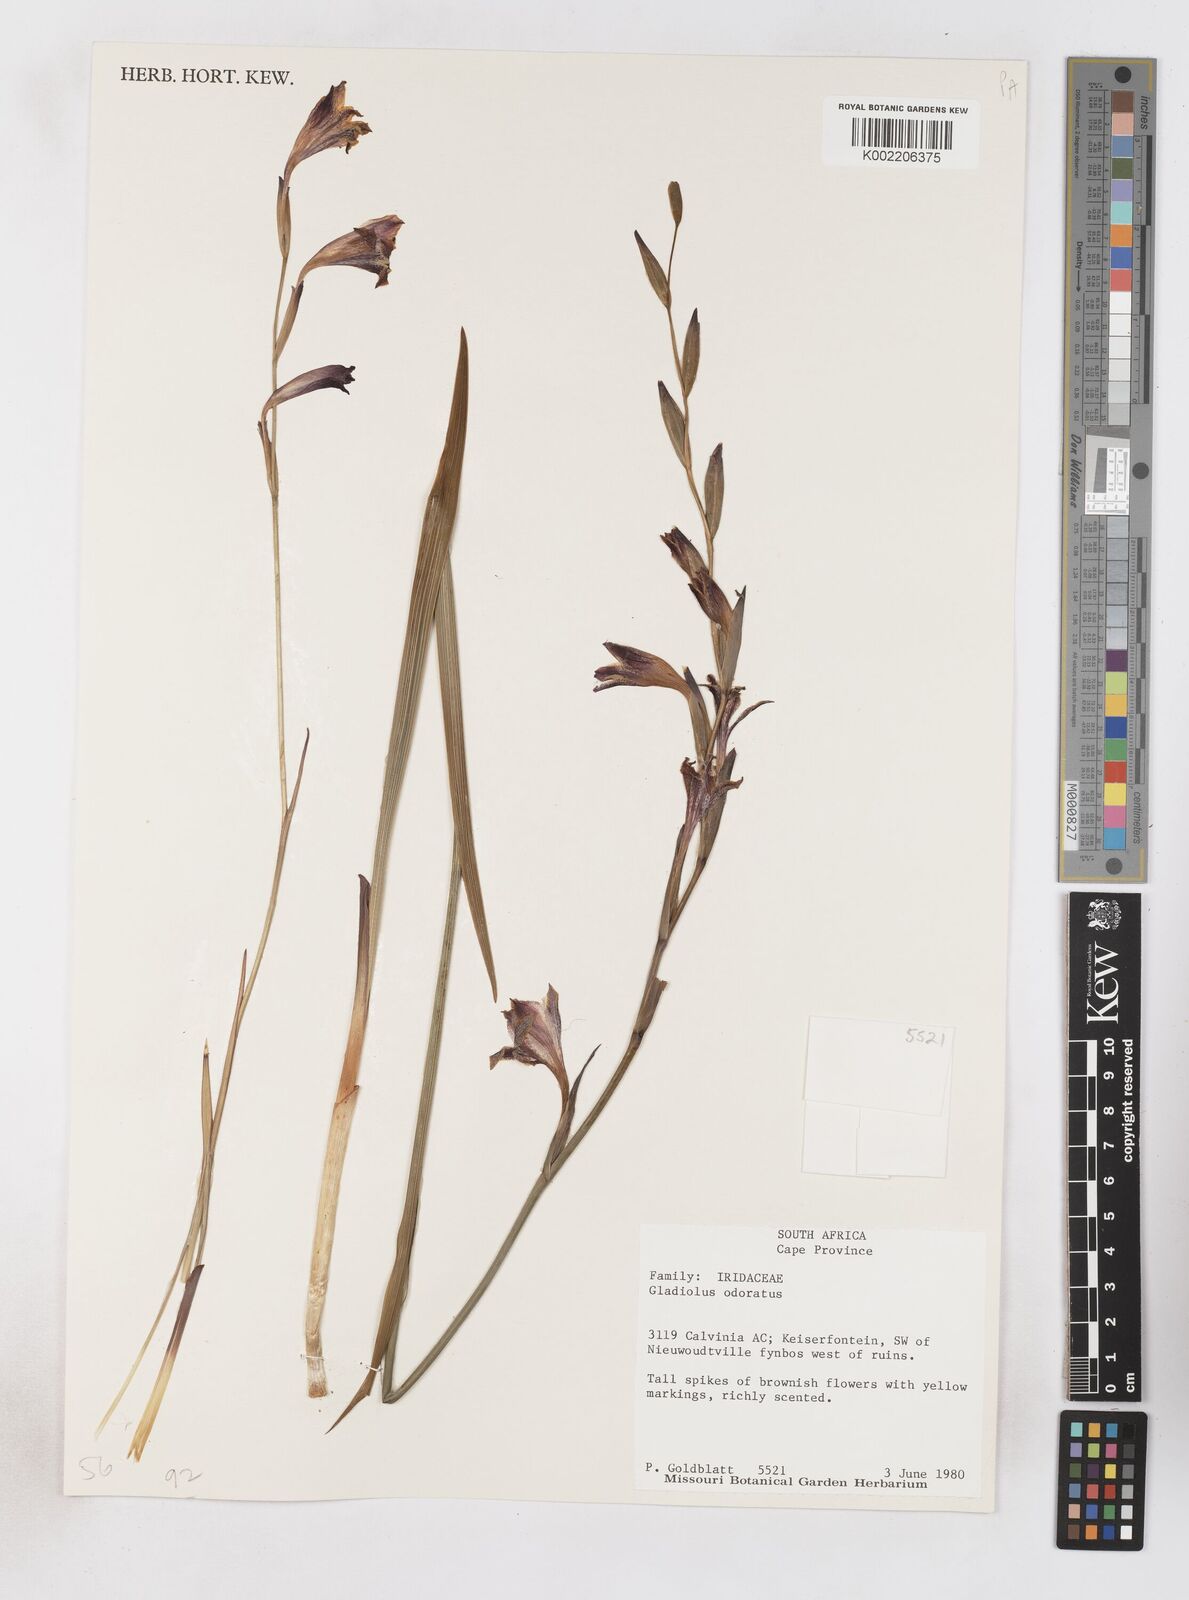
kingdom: Plantae
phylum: Tracheophyta
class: Liliopsida
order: Asparagales
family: Iridaceae
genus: Gladiolus
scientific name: Gladiolus guthriei
